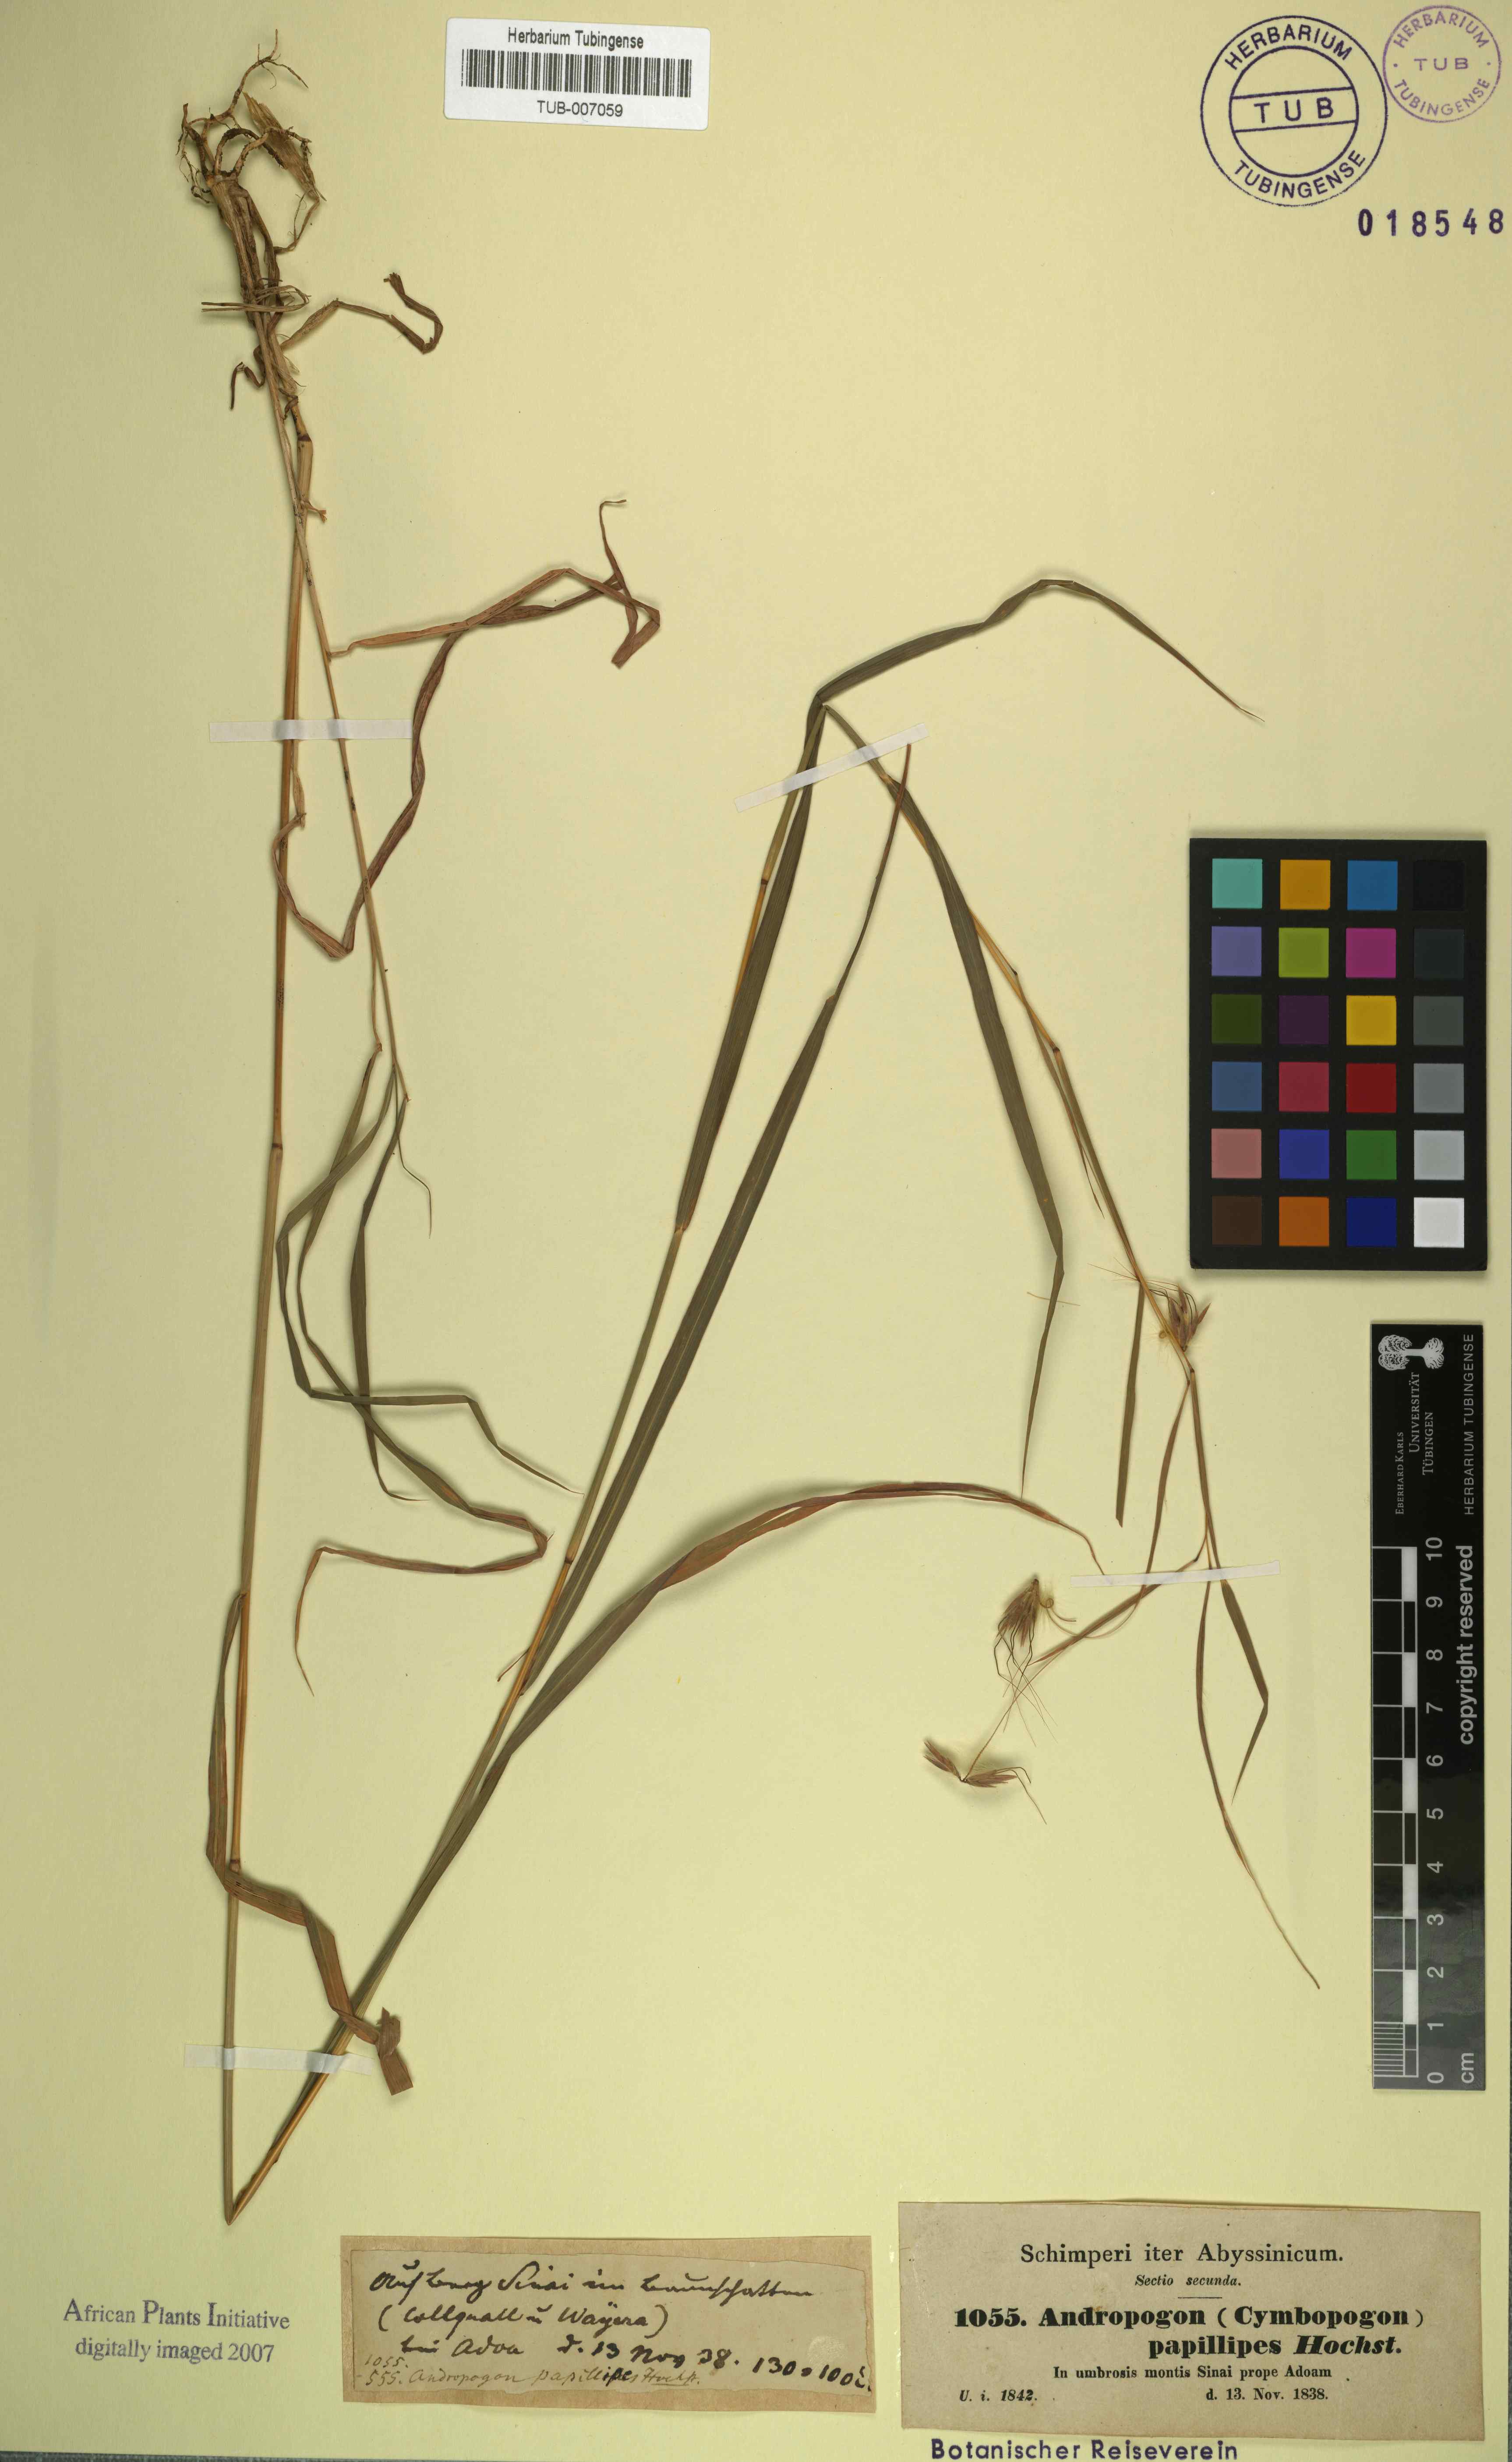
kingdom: Plantae
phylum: Tracheophyta
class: Liliopsida
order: Poales
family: Poaceae
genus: Hyparrhenia
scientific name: Hyparrhenia papillipes
